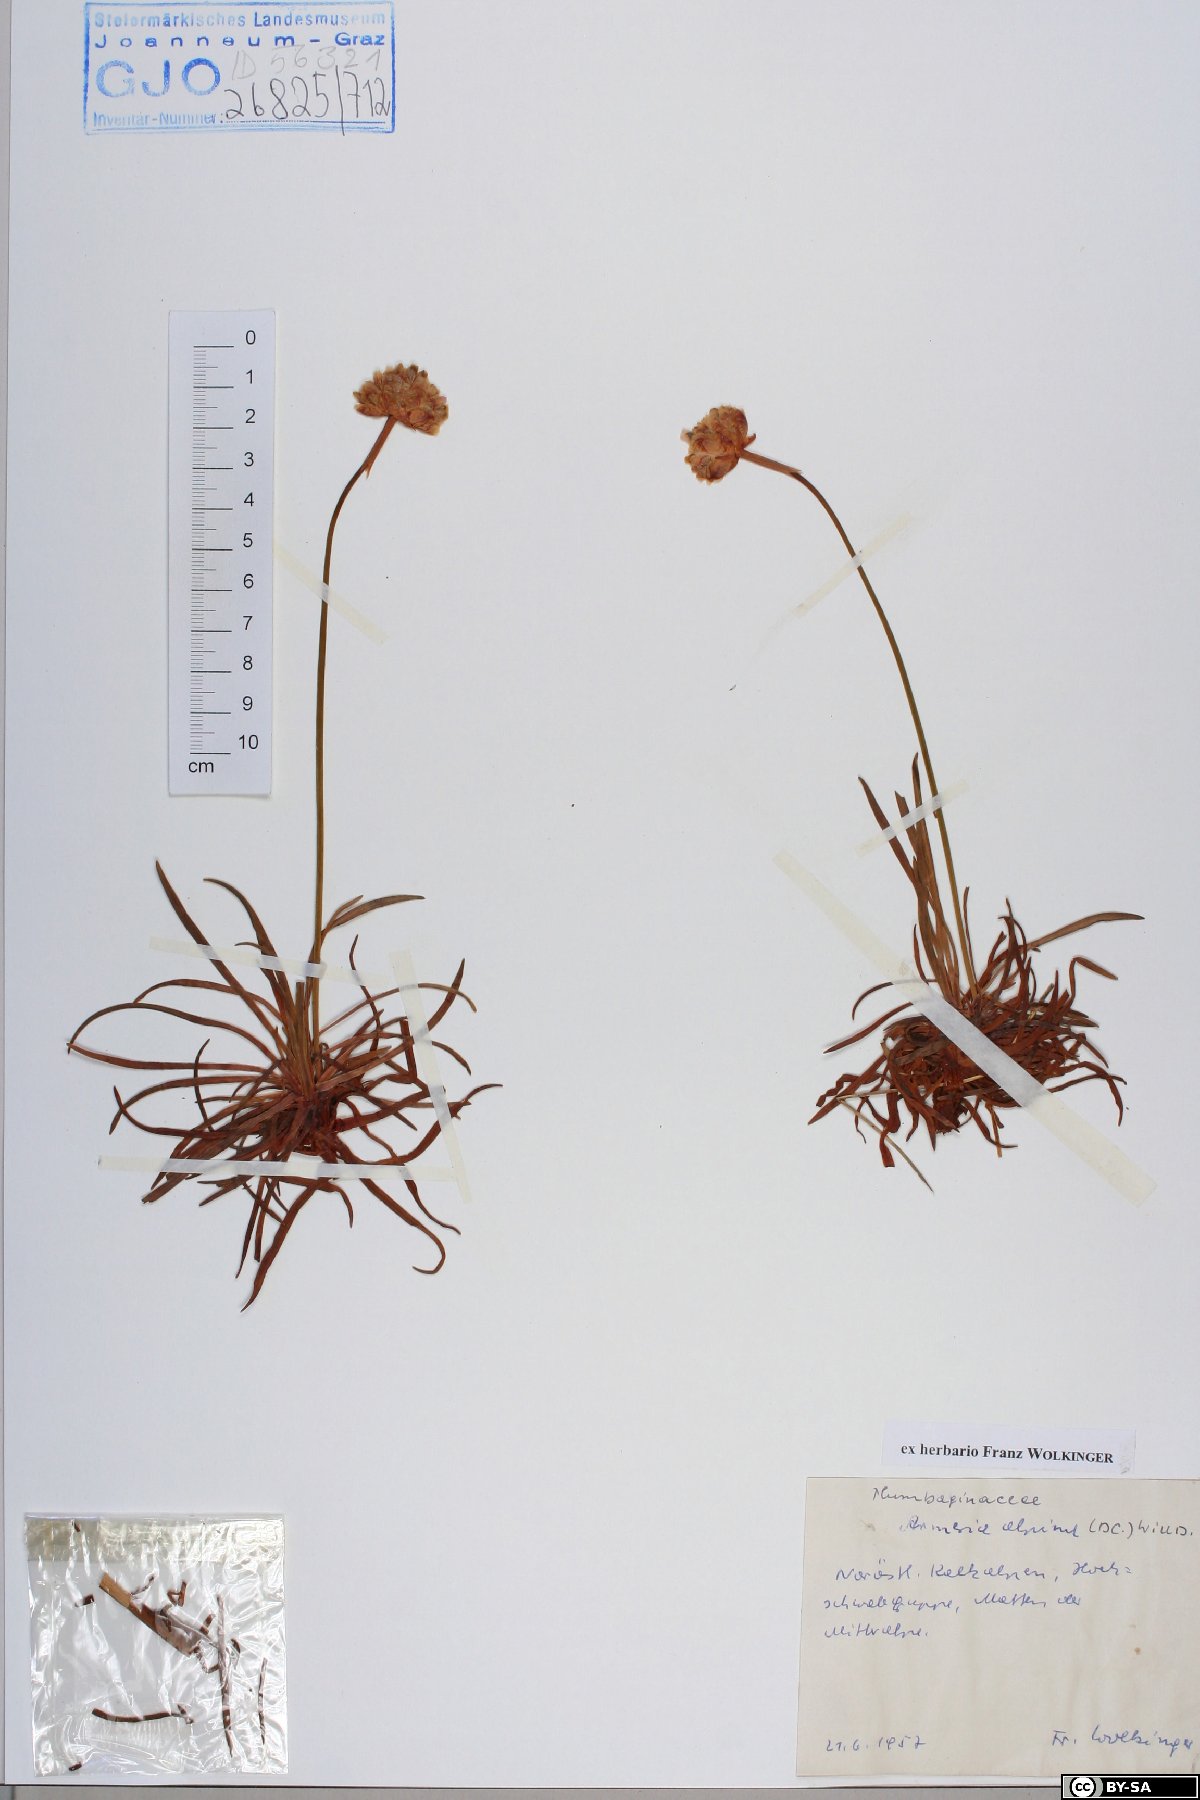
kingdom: Plantae
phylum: Tracheophyta
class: Magnoliopsida
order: Caryophyllales
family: Plumbaginaceae
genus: Armeria
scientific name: Armeria alpina
